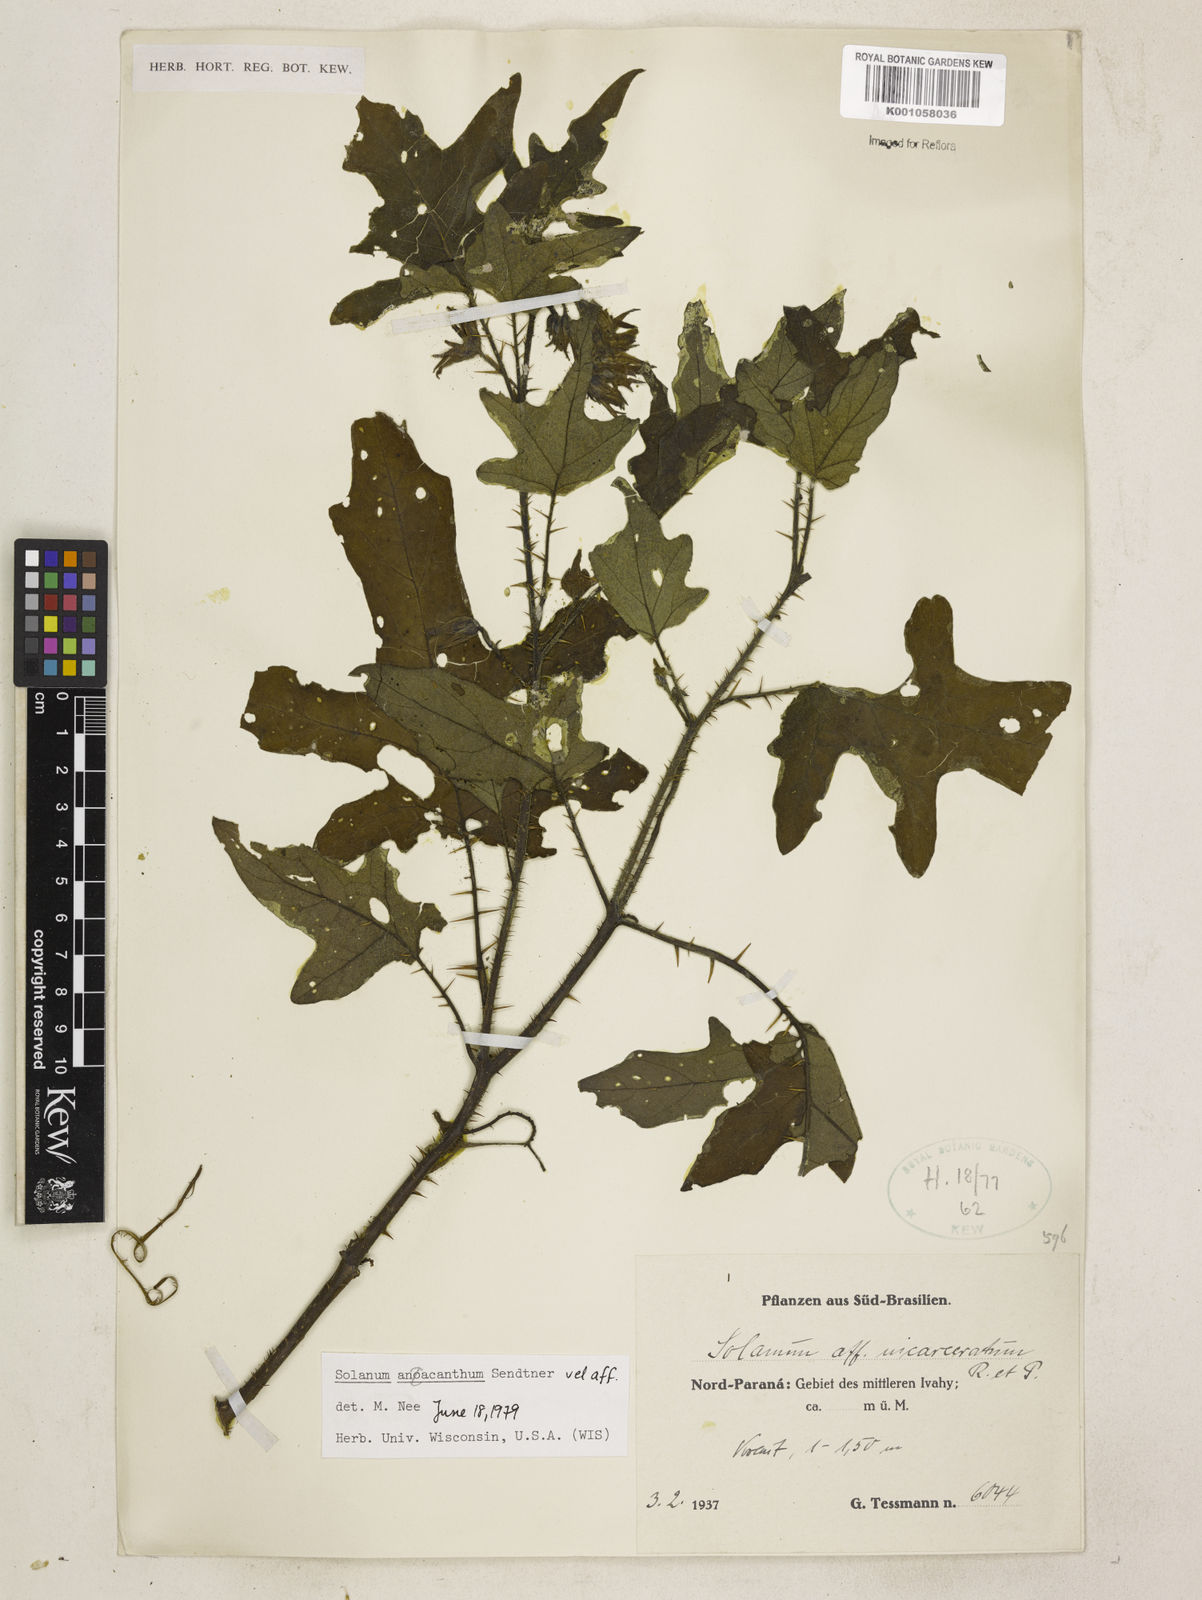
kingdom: Plantae
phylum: Tracheophyta
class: Magnoliopsida
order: Solanales
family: Solanaceae
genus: Solanum
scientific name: Solanum
